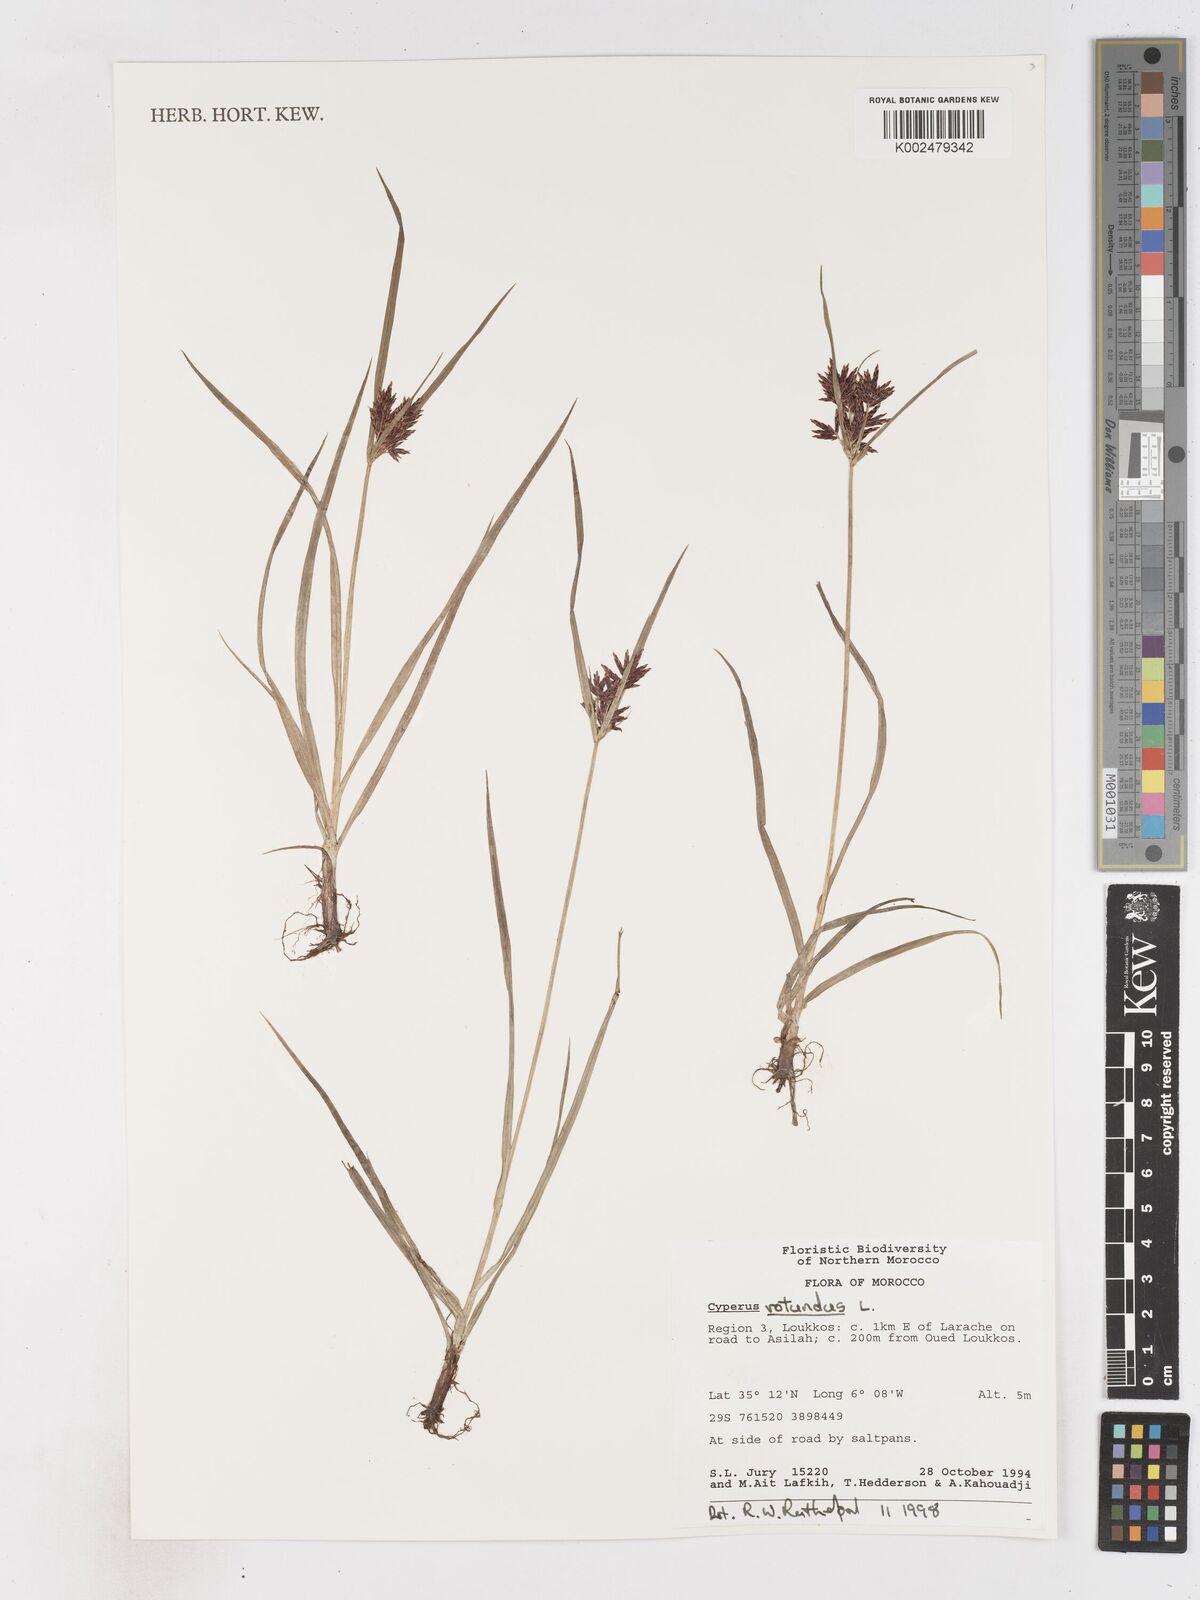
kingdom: Plantae
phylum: Tracheophyta
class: Liliopsida
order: Poales
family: Cyperaceae
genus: Cyperus
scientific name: Cyperus rotundus
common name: Nutgrass
